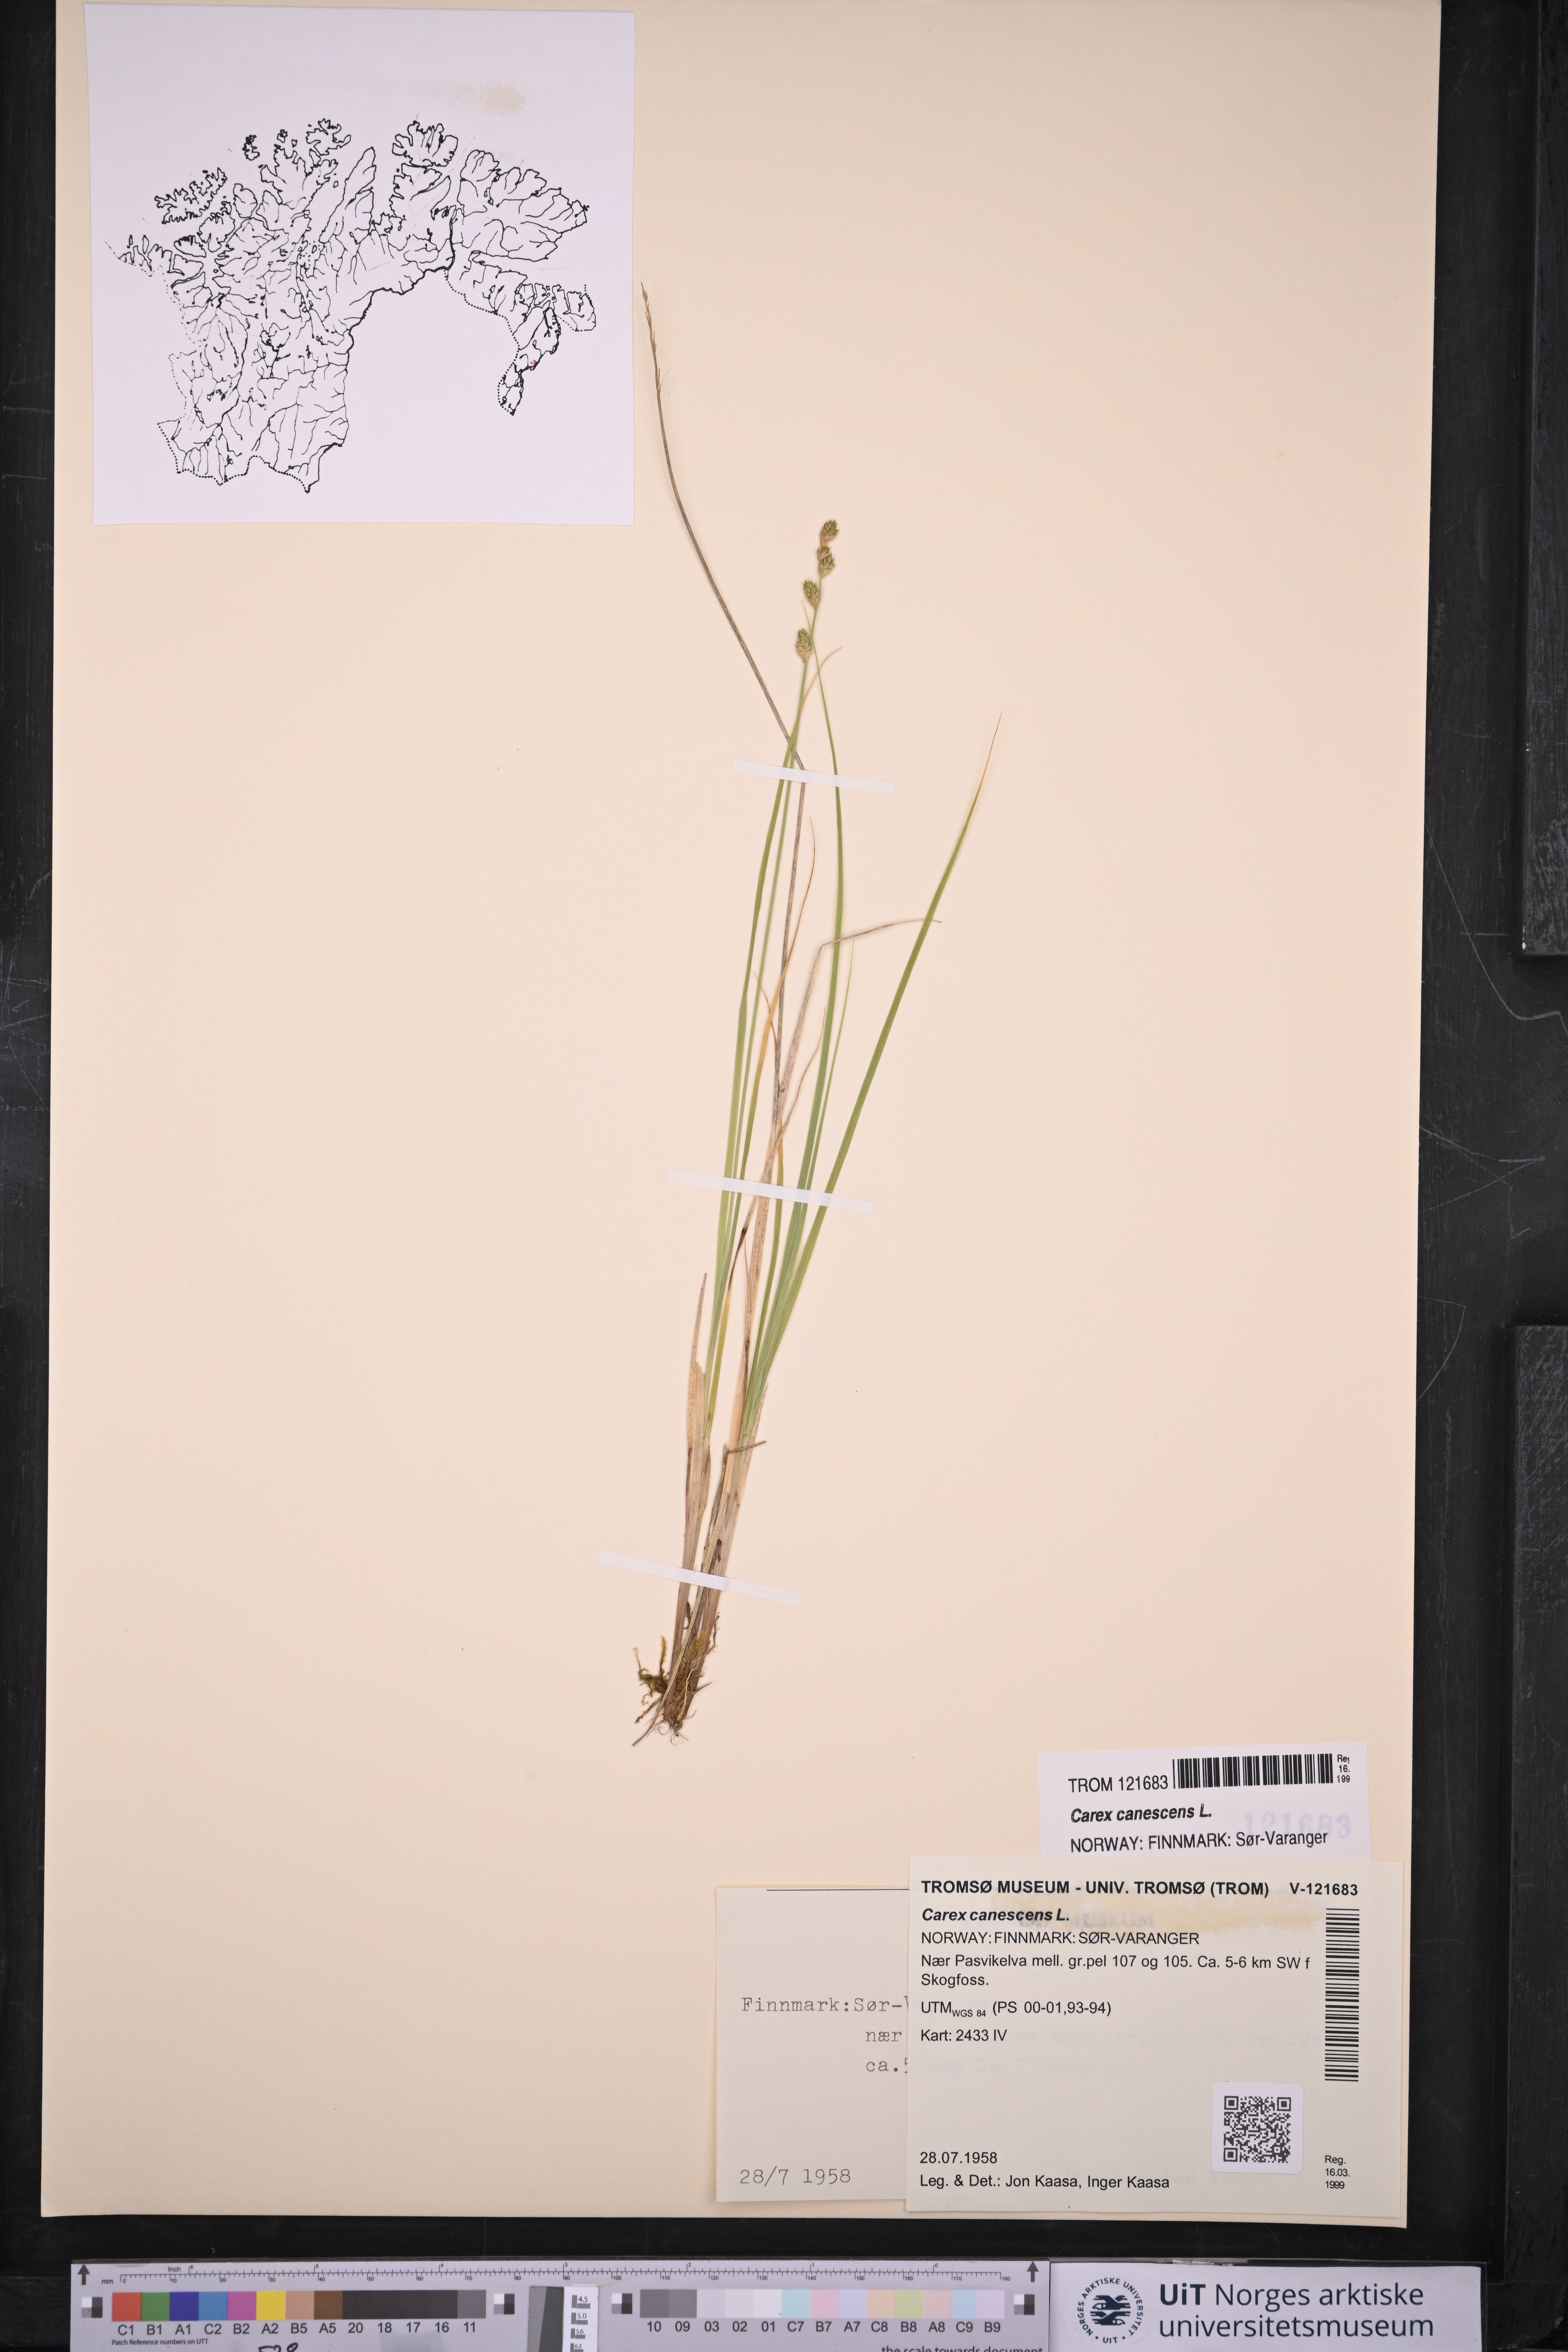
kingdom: Plantae
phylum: Tracheophyta
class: Liliopsida
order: Poales
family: Cyperaceae
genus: Carex
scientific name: Carex canescens
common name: White sedge
